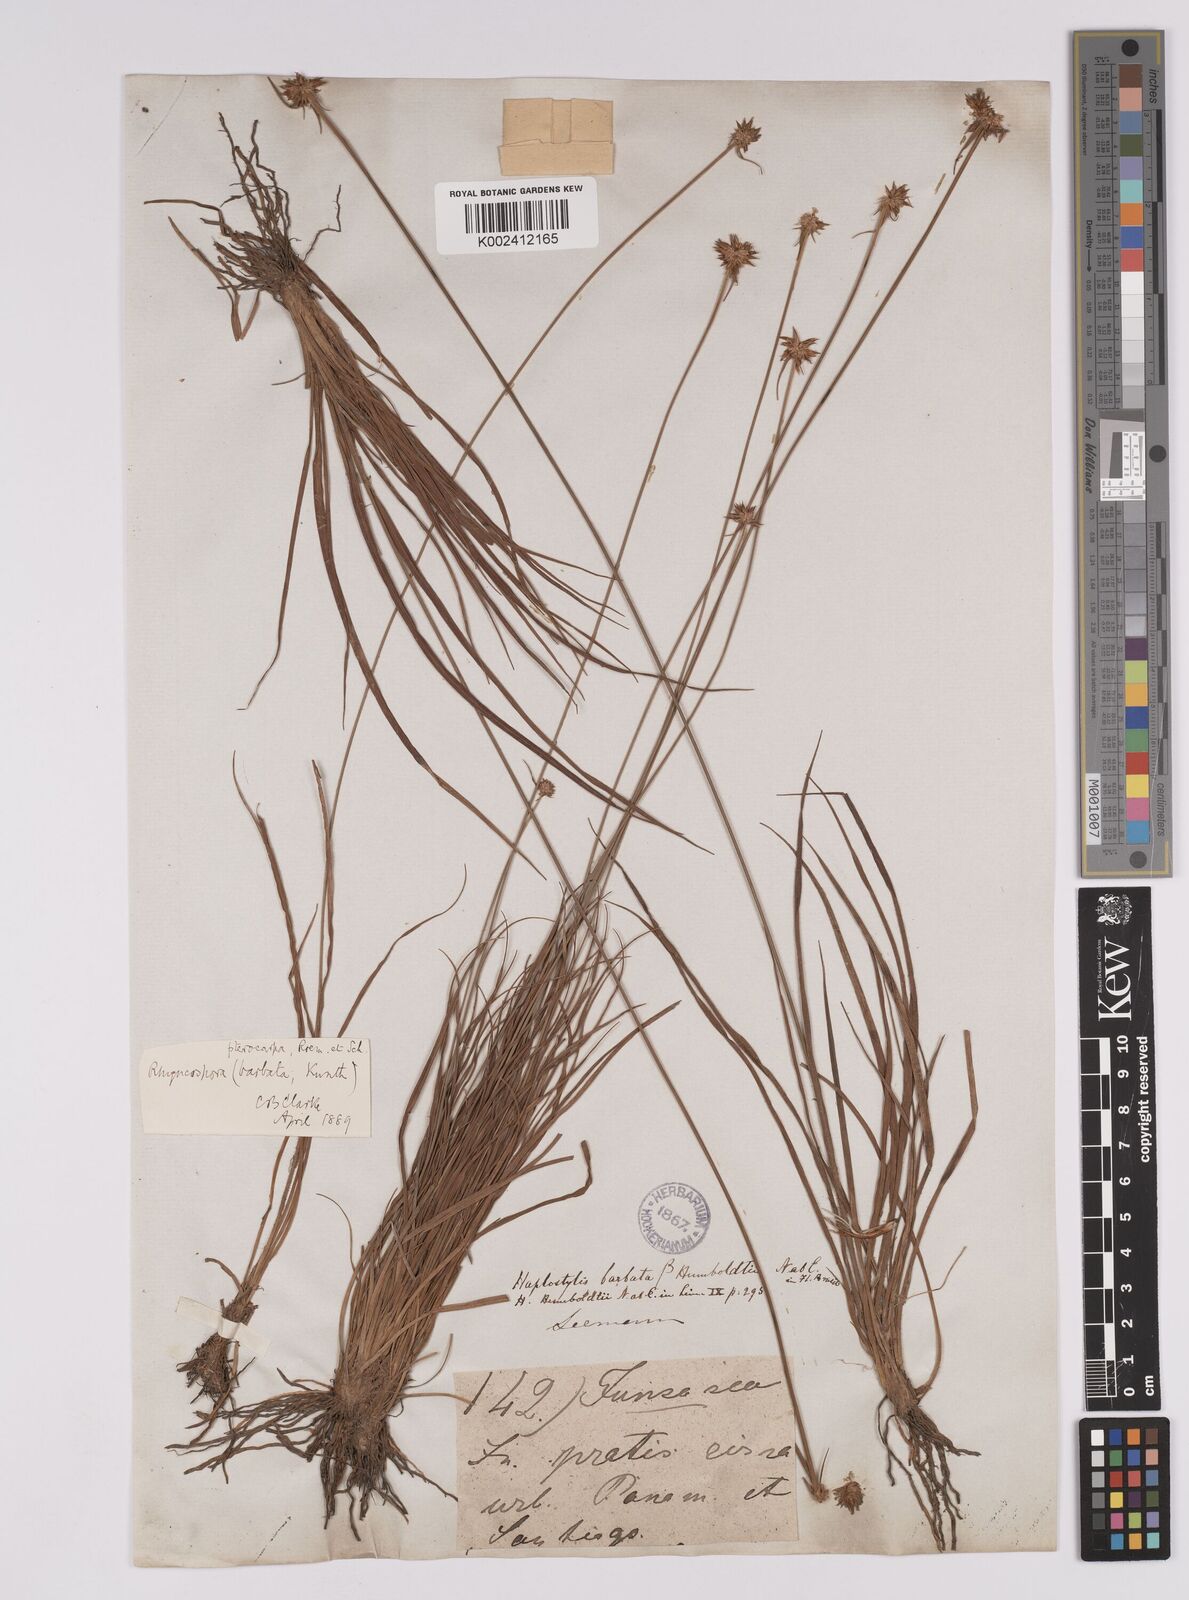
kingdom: Plantae
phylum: Tracheophyta
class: Liliopsida
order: Poales
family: Cyperaceae
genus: Rhynchospora
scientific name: Rhynchospora barbata
